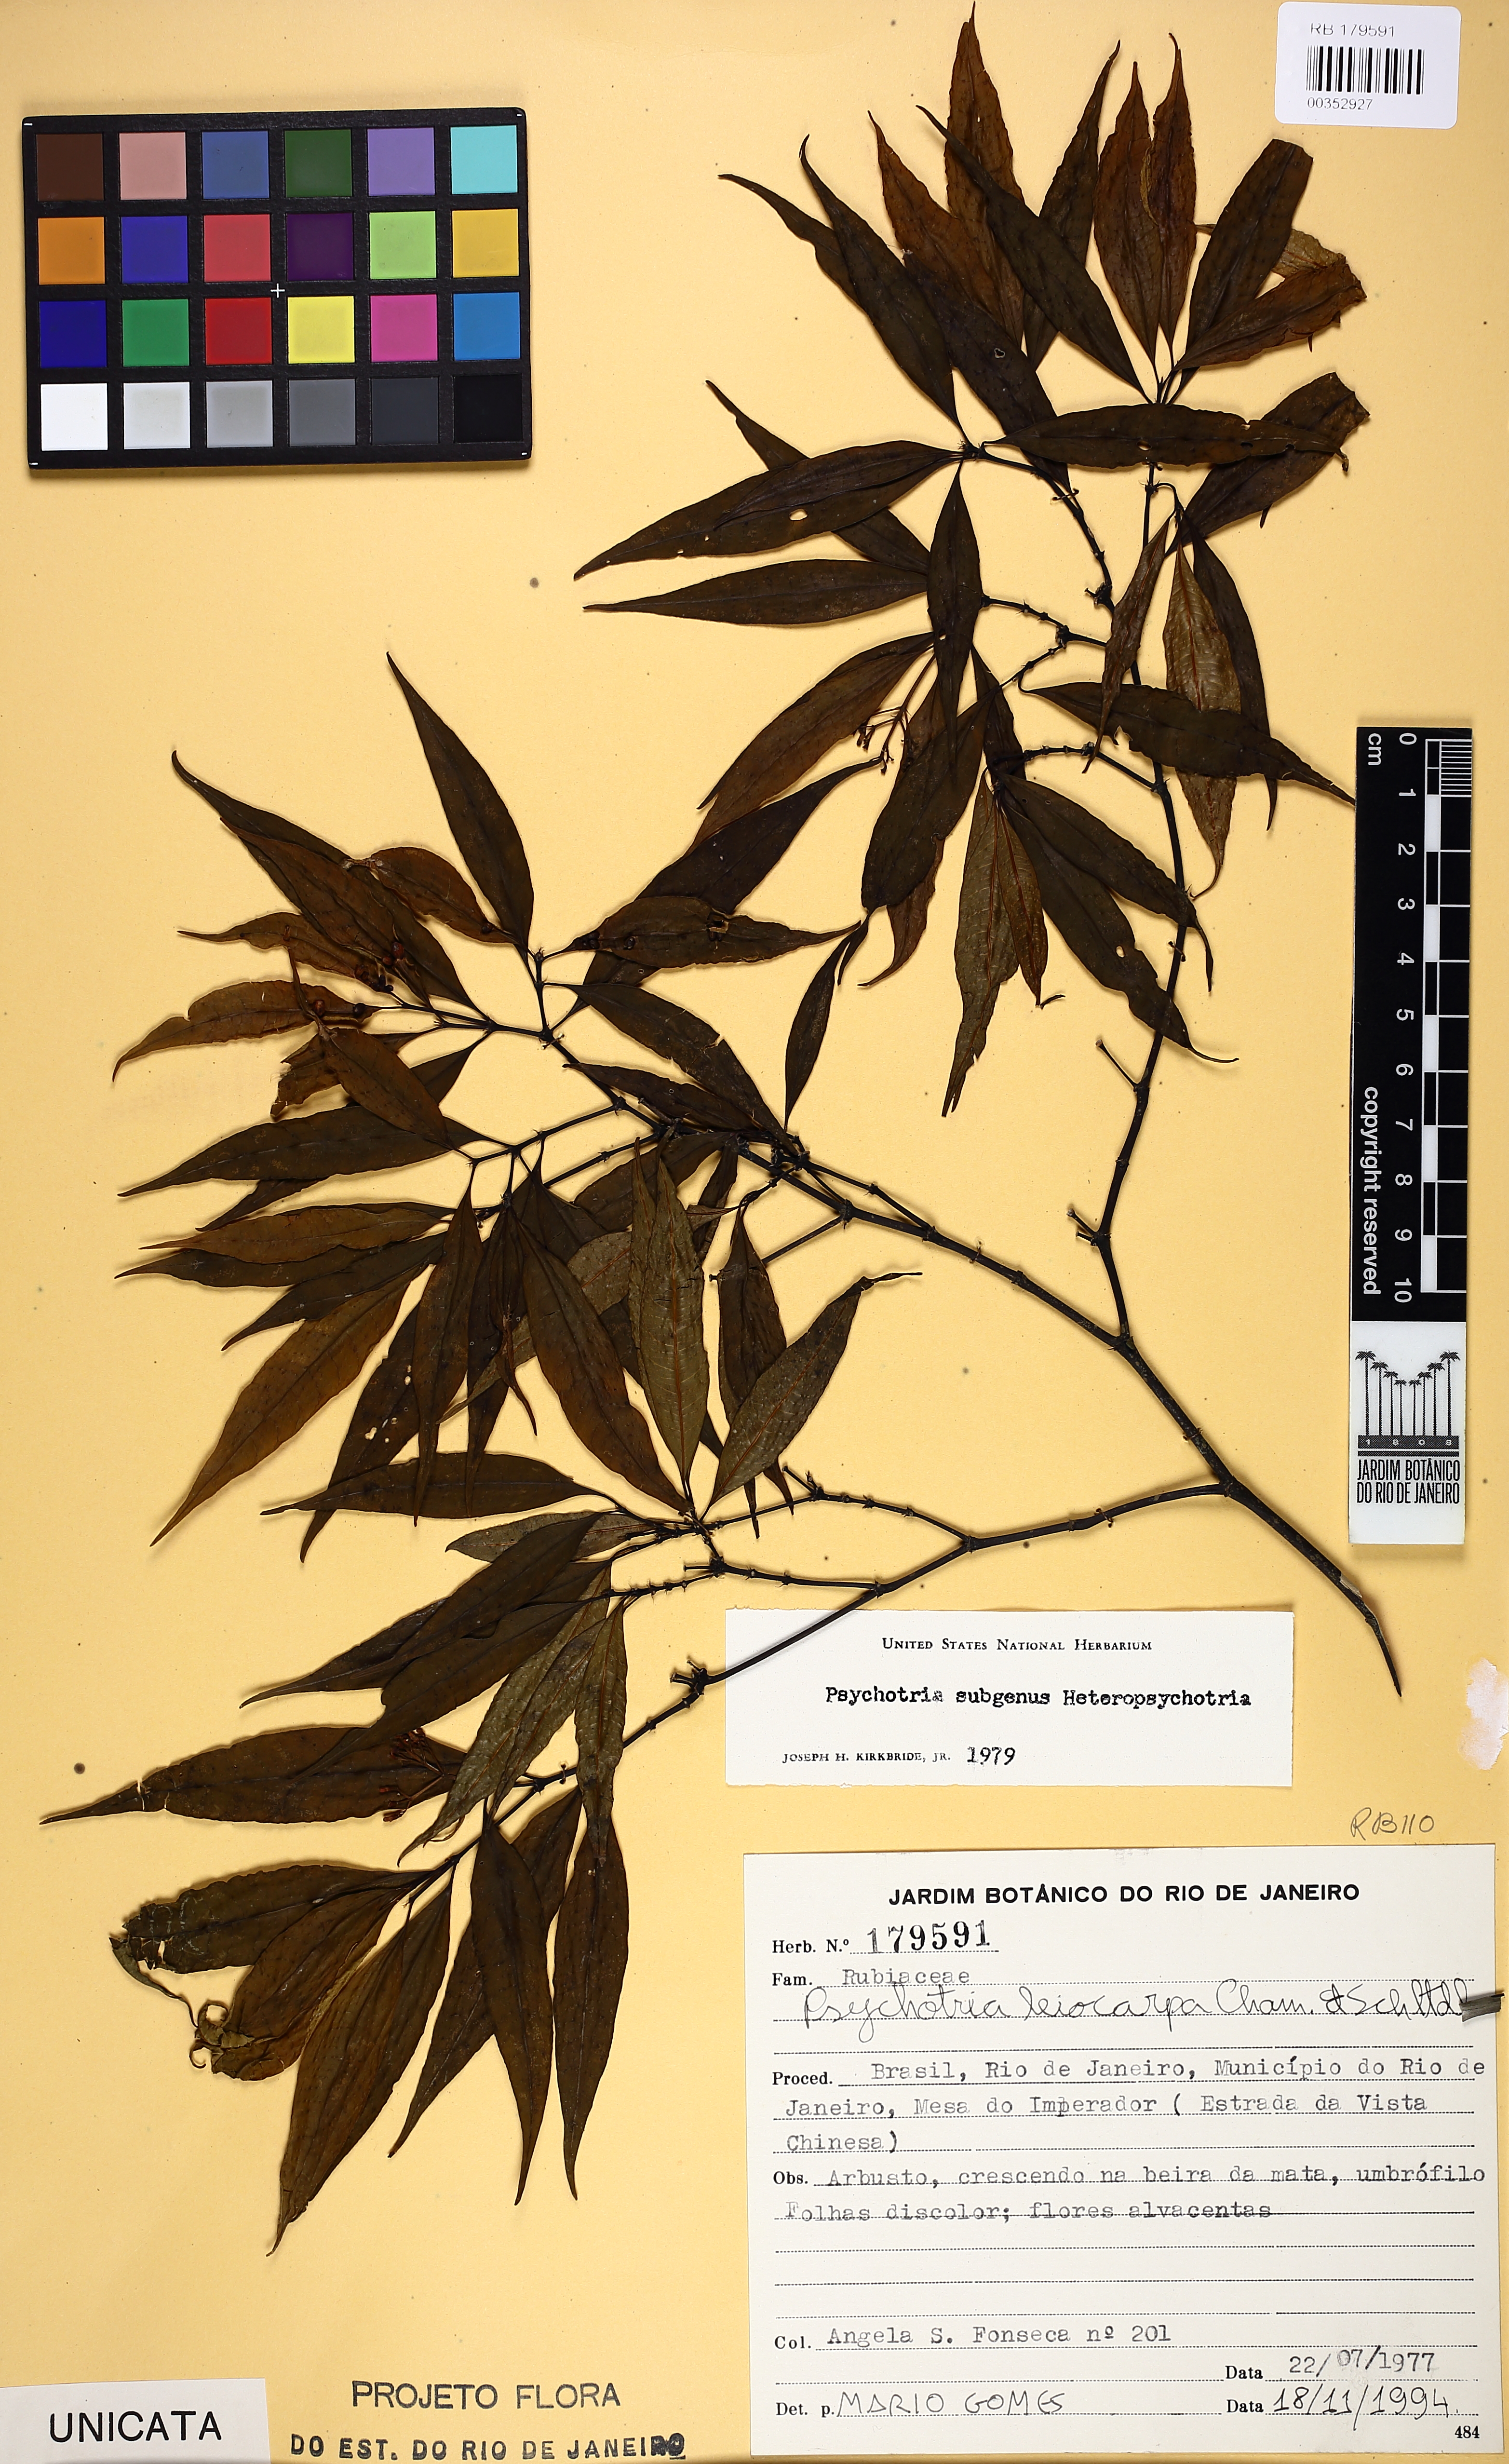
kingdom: Plantae
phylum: Tracheophyta
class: Magnoliopsida
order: Gentianales
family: Rubiaceae
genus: Psychotria
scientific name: Psychotria leiocarpa
